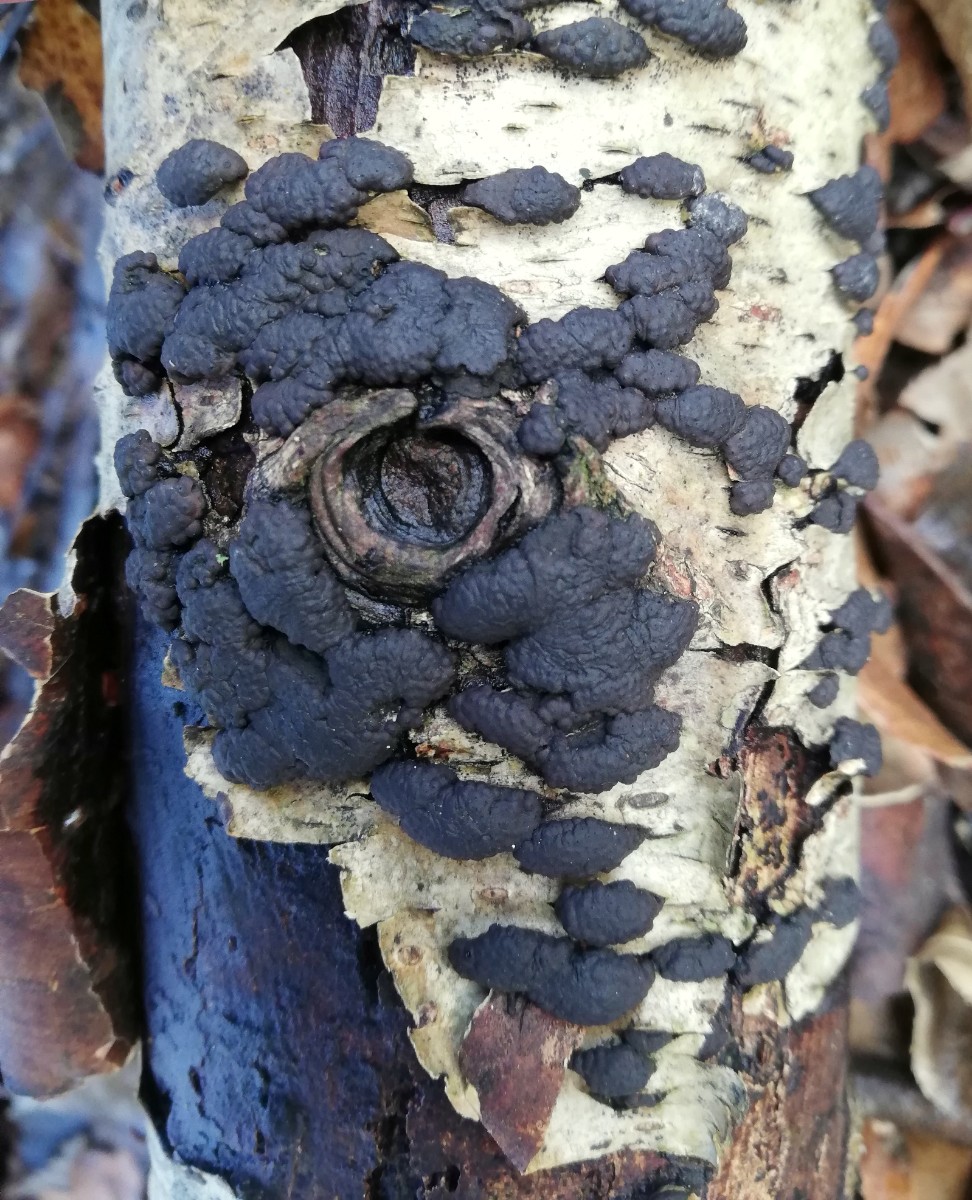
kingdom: Fungi
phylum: Ascomycota
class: Sordariomycetes
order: Xylariales
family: Hypoxylaceae
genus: Jackrogersella
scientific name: Jackrogersella multiformis
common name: foranderlig kulbær
